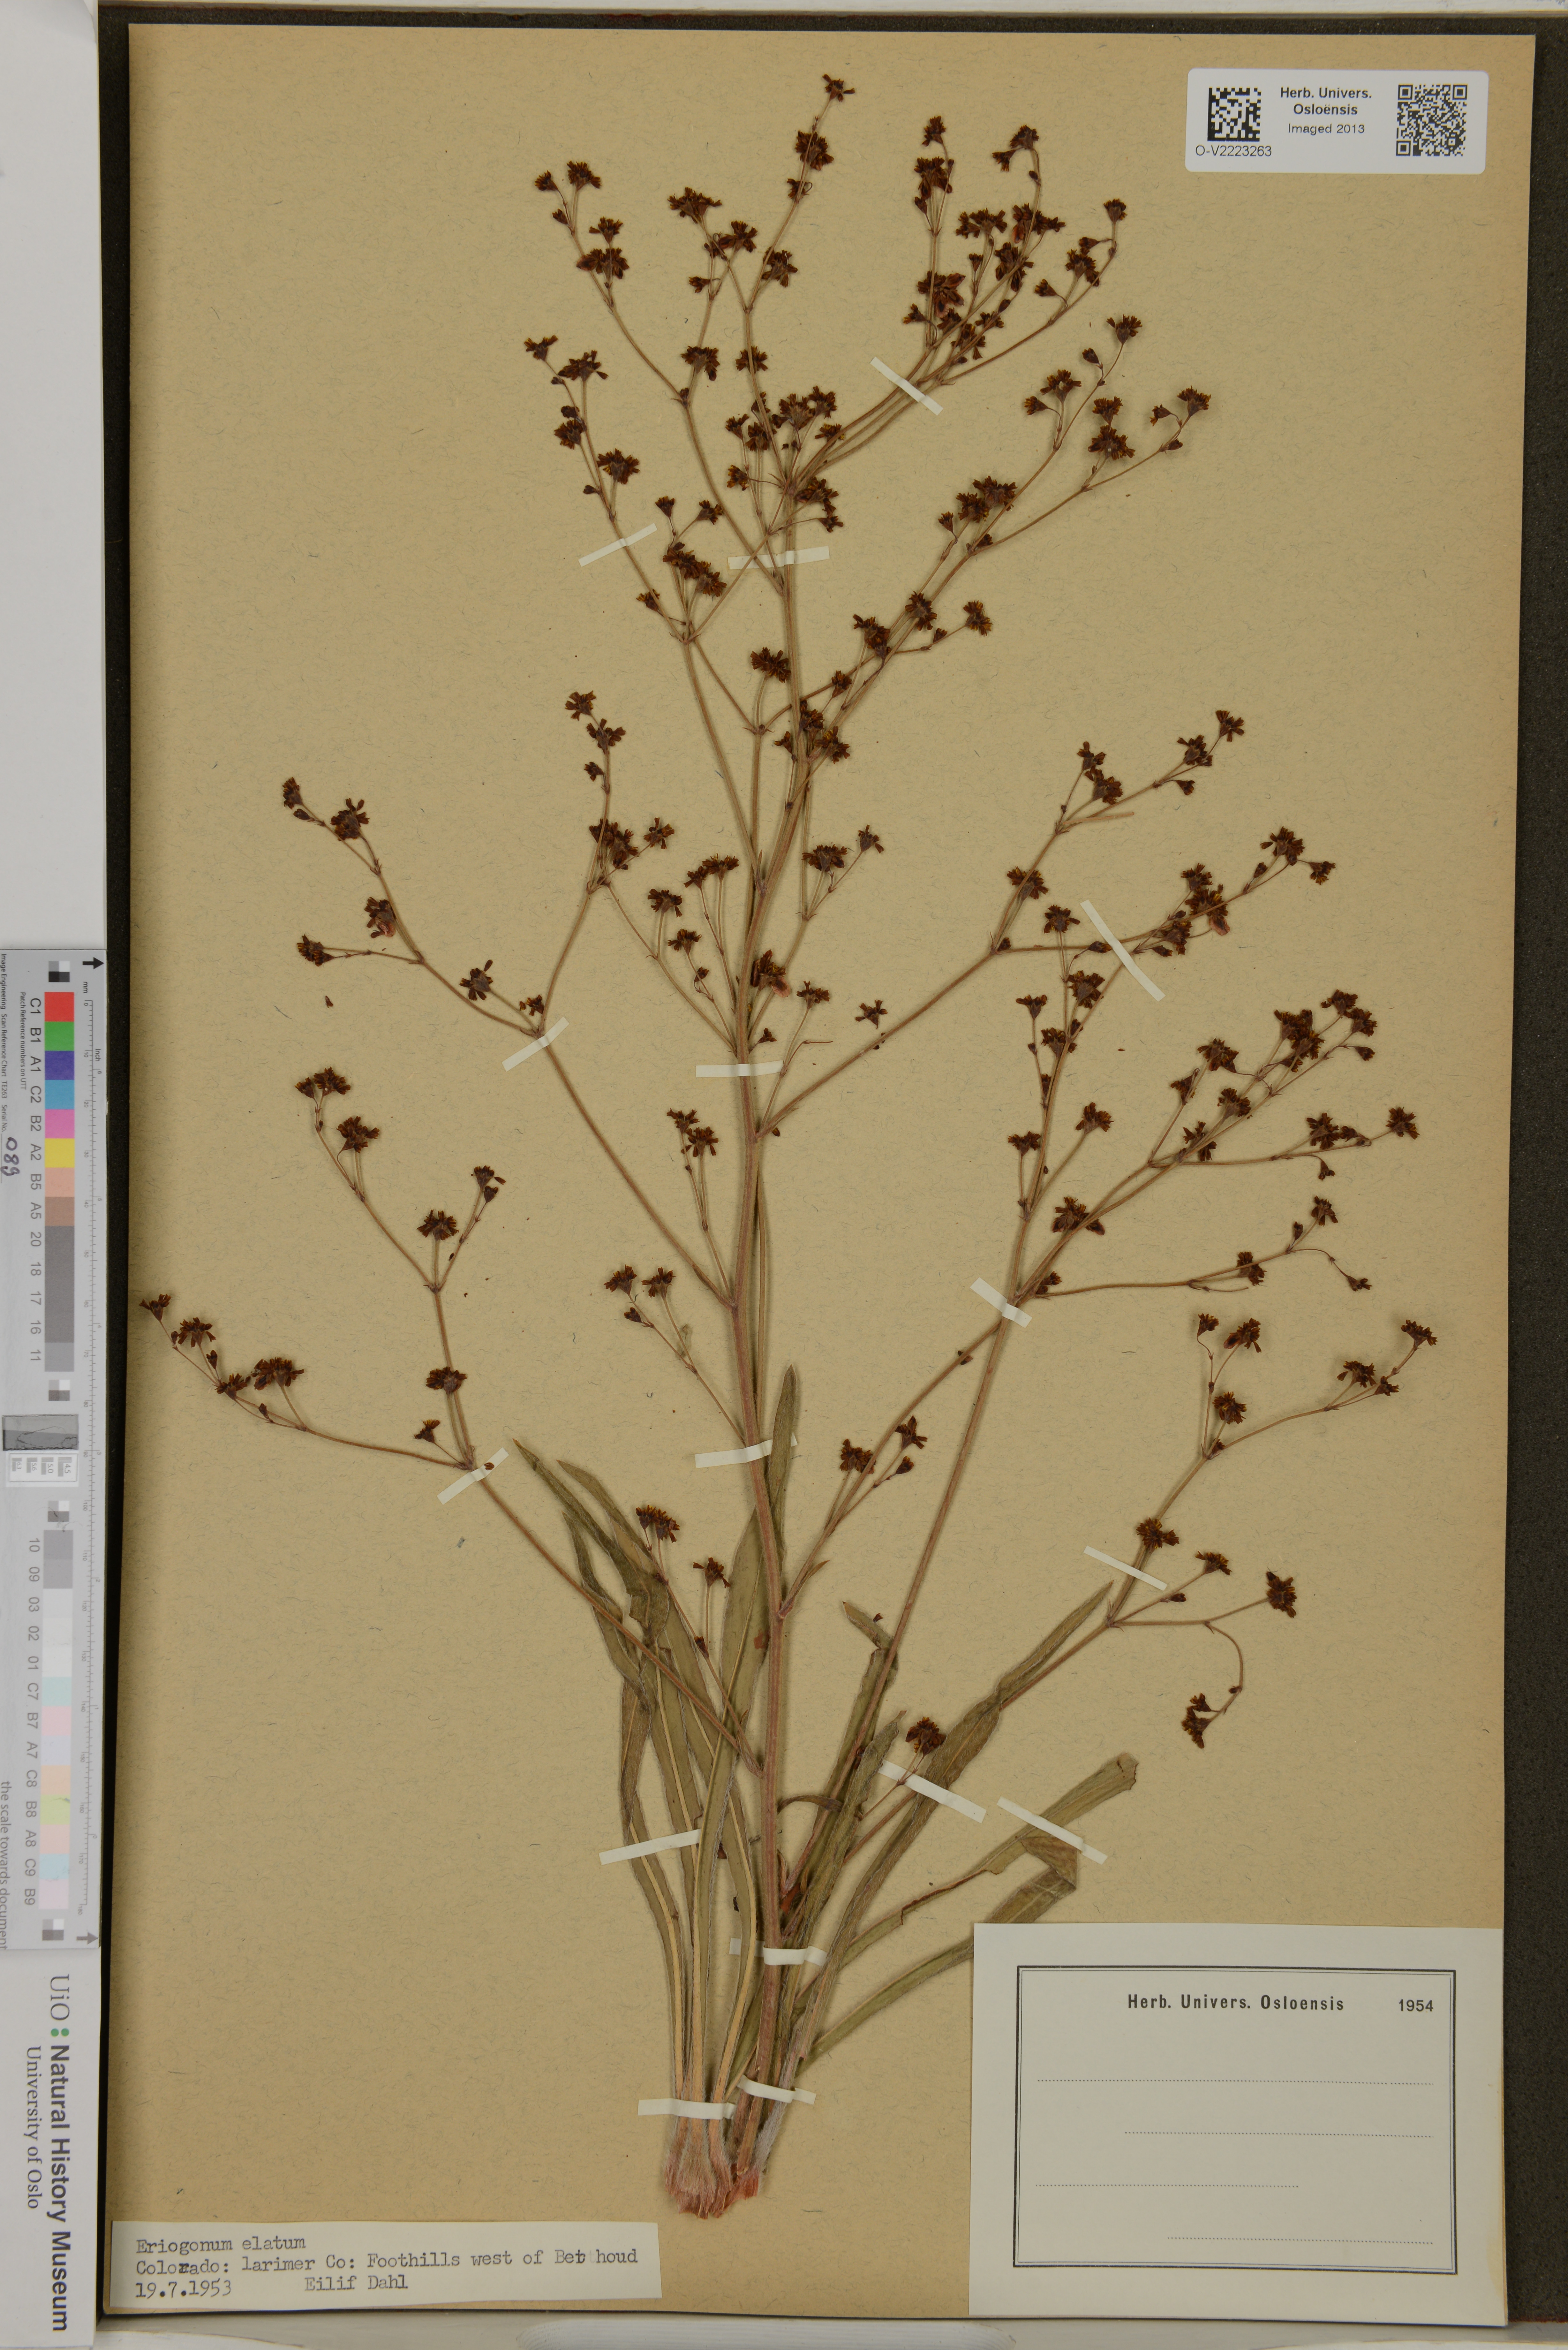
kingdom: Plantae
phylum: Tracheophyta
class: Magnoliopsida
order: Caryophyllales
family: Polygonaceae
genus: Eriogonum
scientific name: Eriogonum elatum
